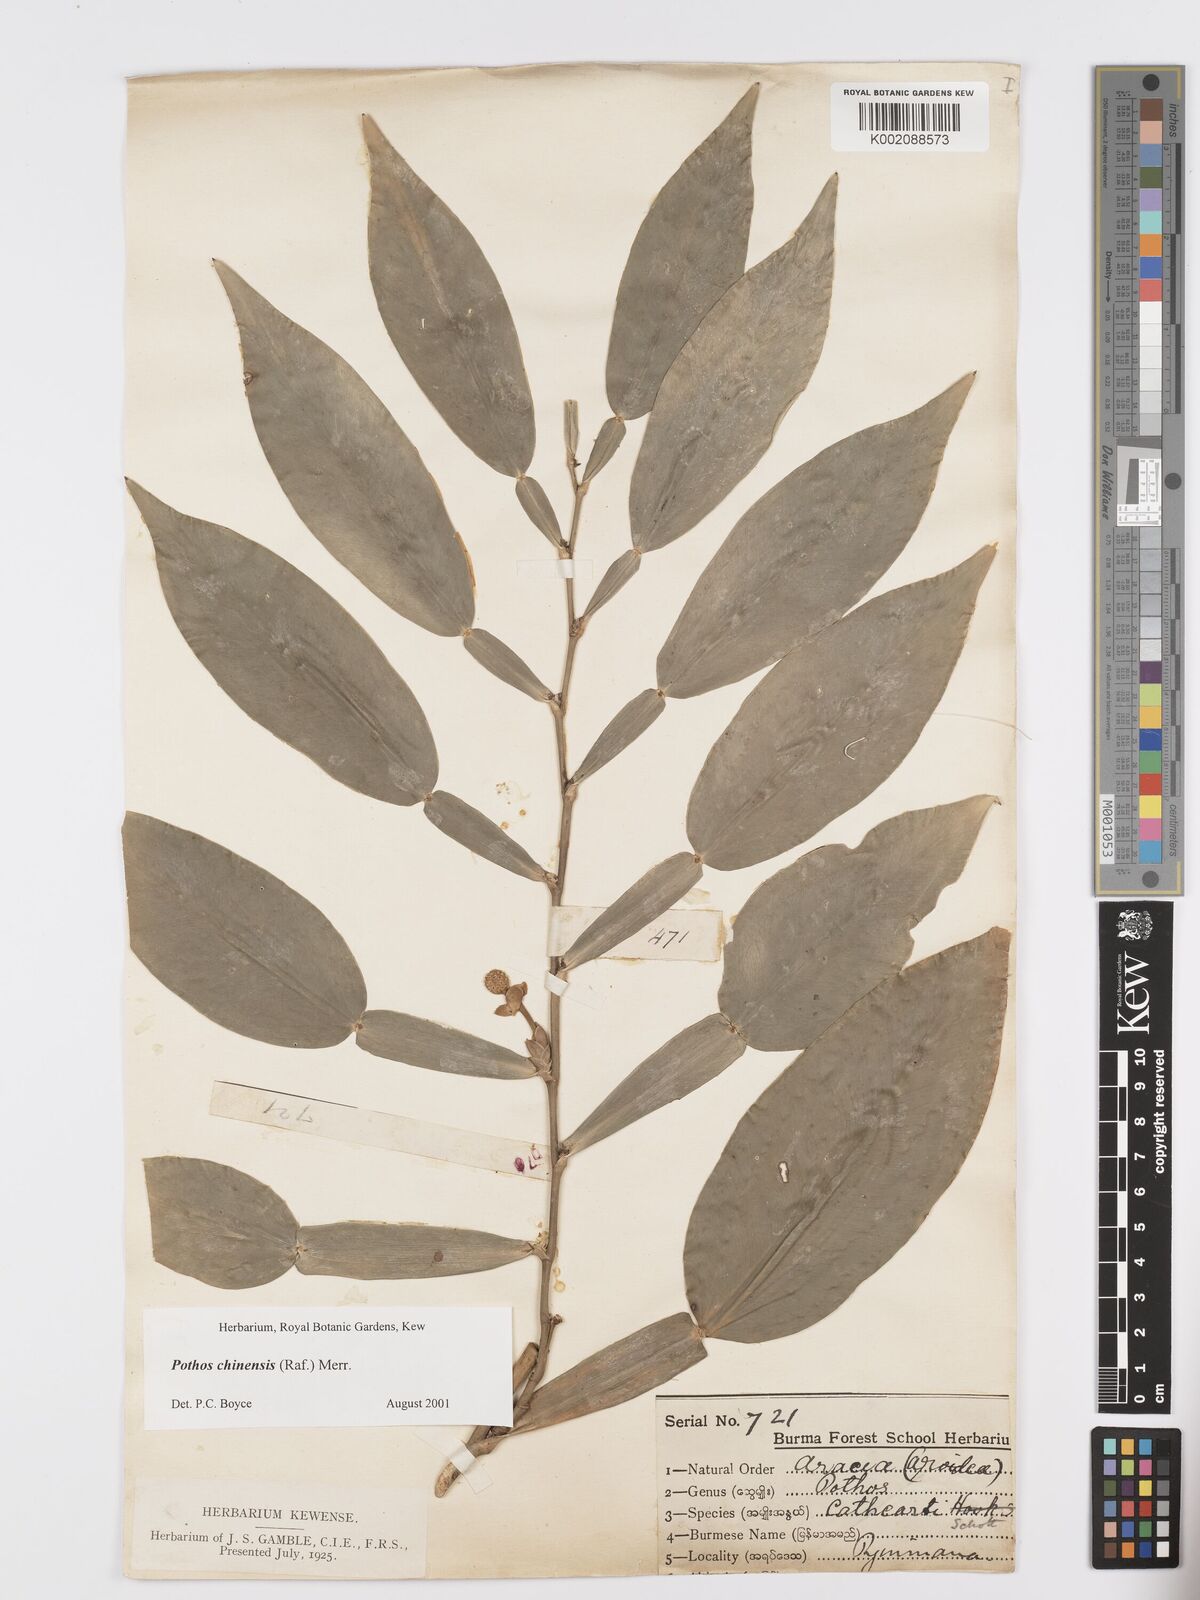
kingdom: Plantae
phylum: Tracheophyta
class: Liliopsida
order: Alismatales
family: Araceae
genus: Pothos
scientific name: Pothos chinensis
